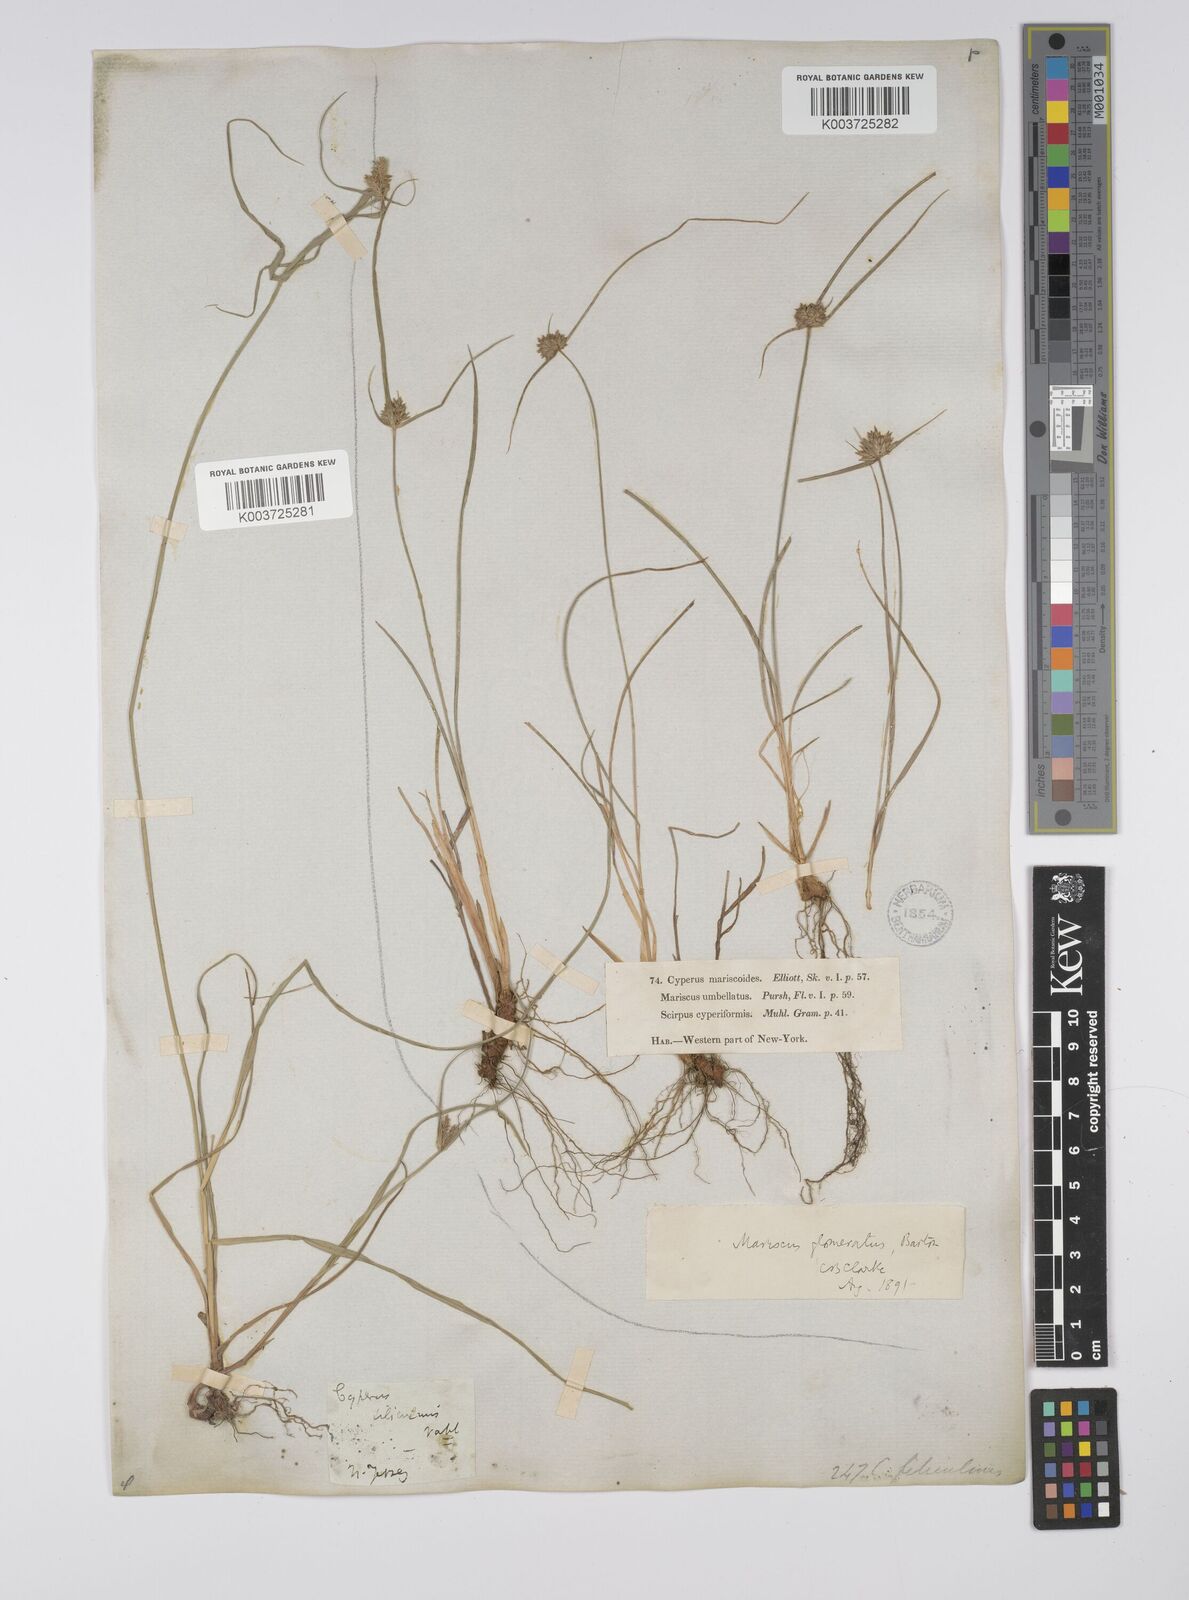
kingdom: Plantae
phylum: Tracheophyta
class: Liliopsida
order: Poales
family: Cyperaceae
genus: Cyperus
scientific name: Cyperus lupulinus
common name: Great plains flatsedge
